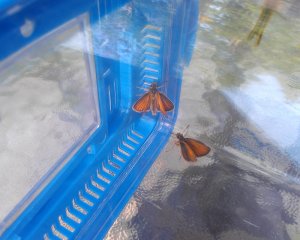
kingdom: Animalia
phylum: Arthropoda
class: Insecta
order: Lepidoptera
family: Hesperiidae
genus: Thymelicus
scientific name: Thymelicus lineola
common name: European Skipper
